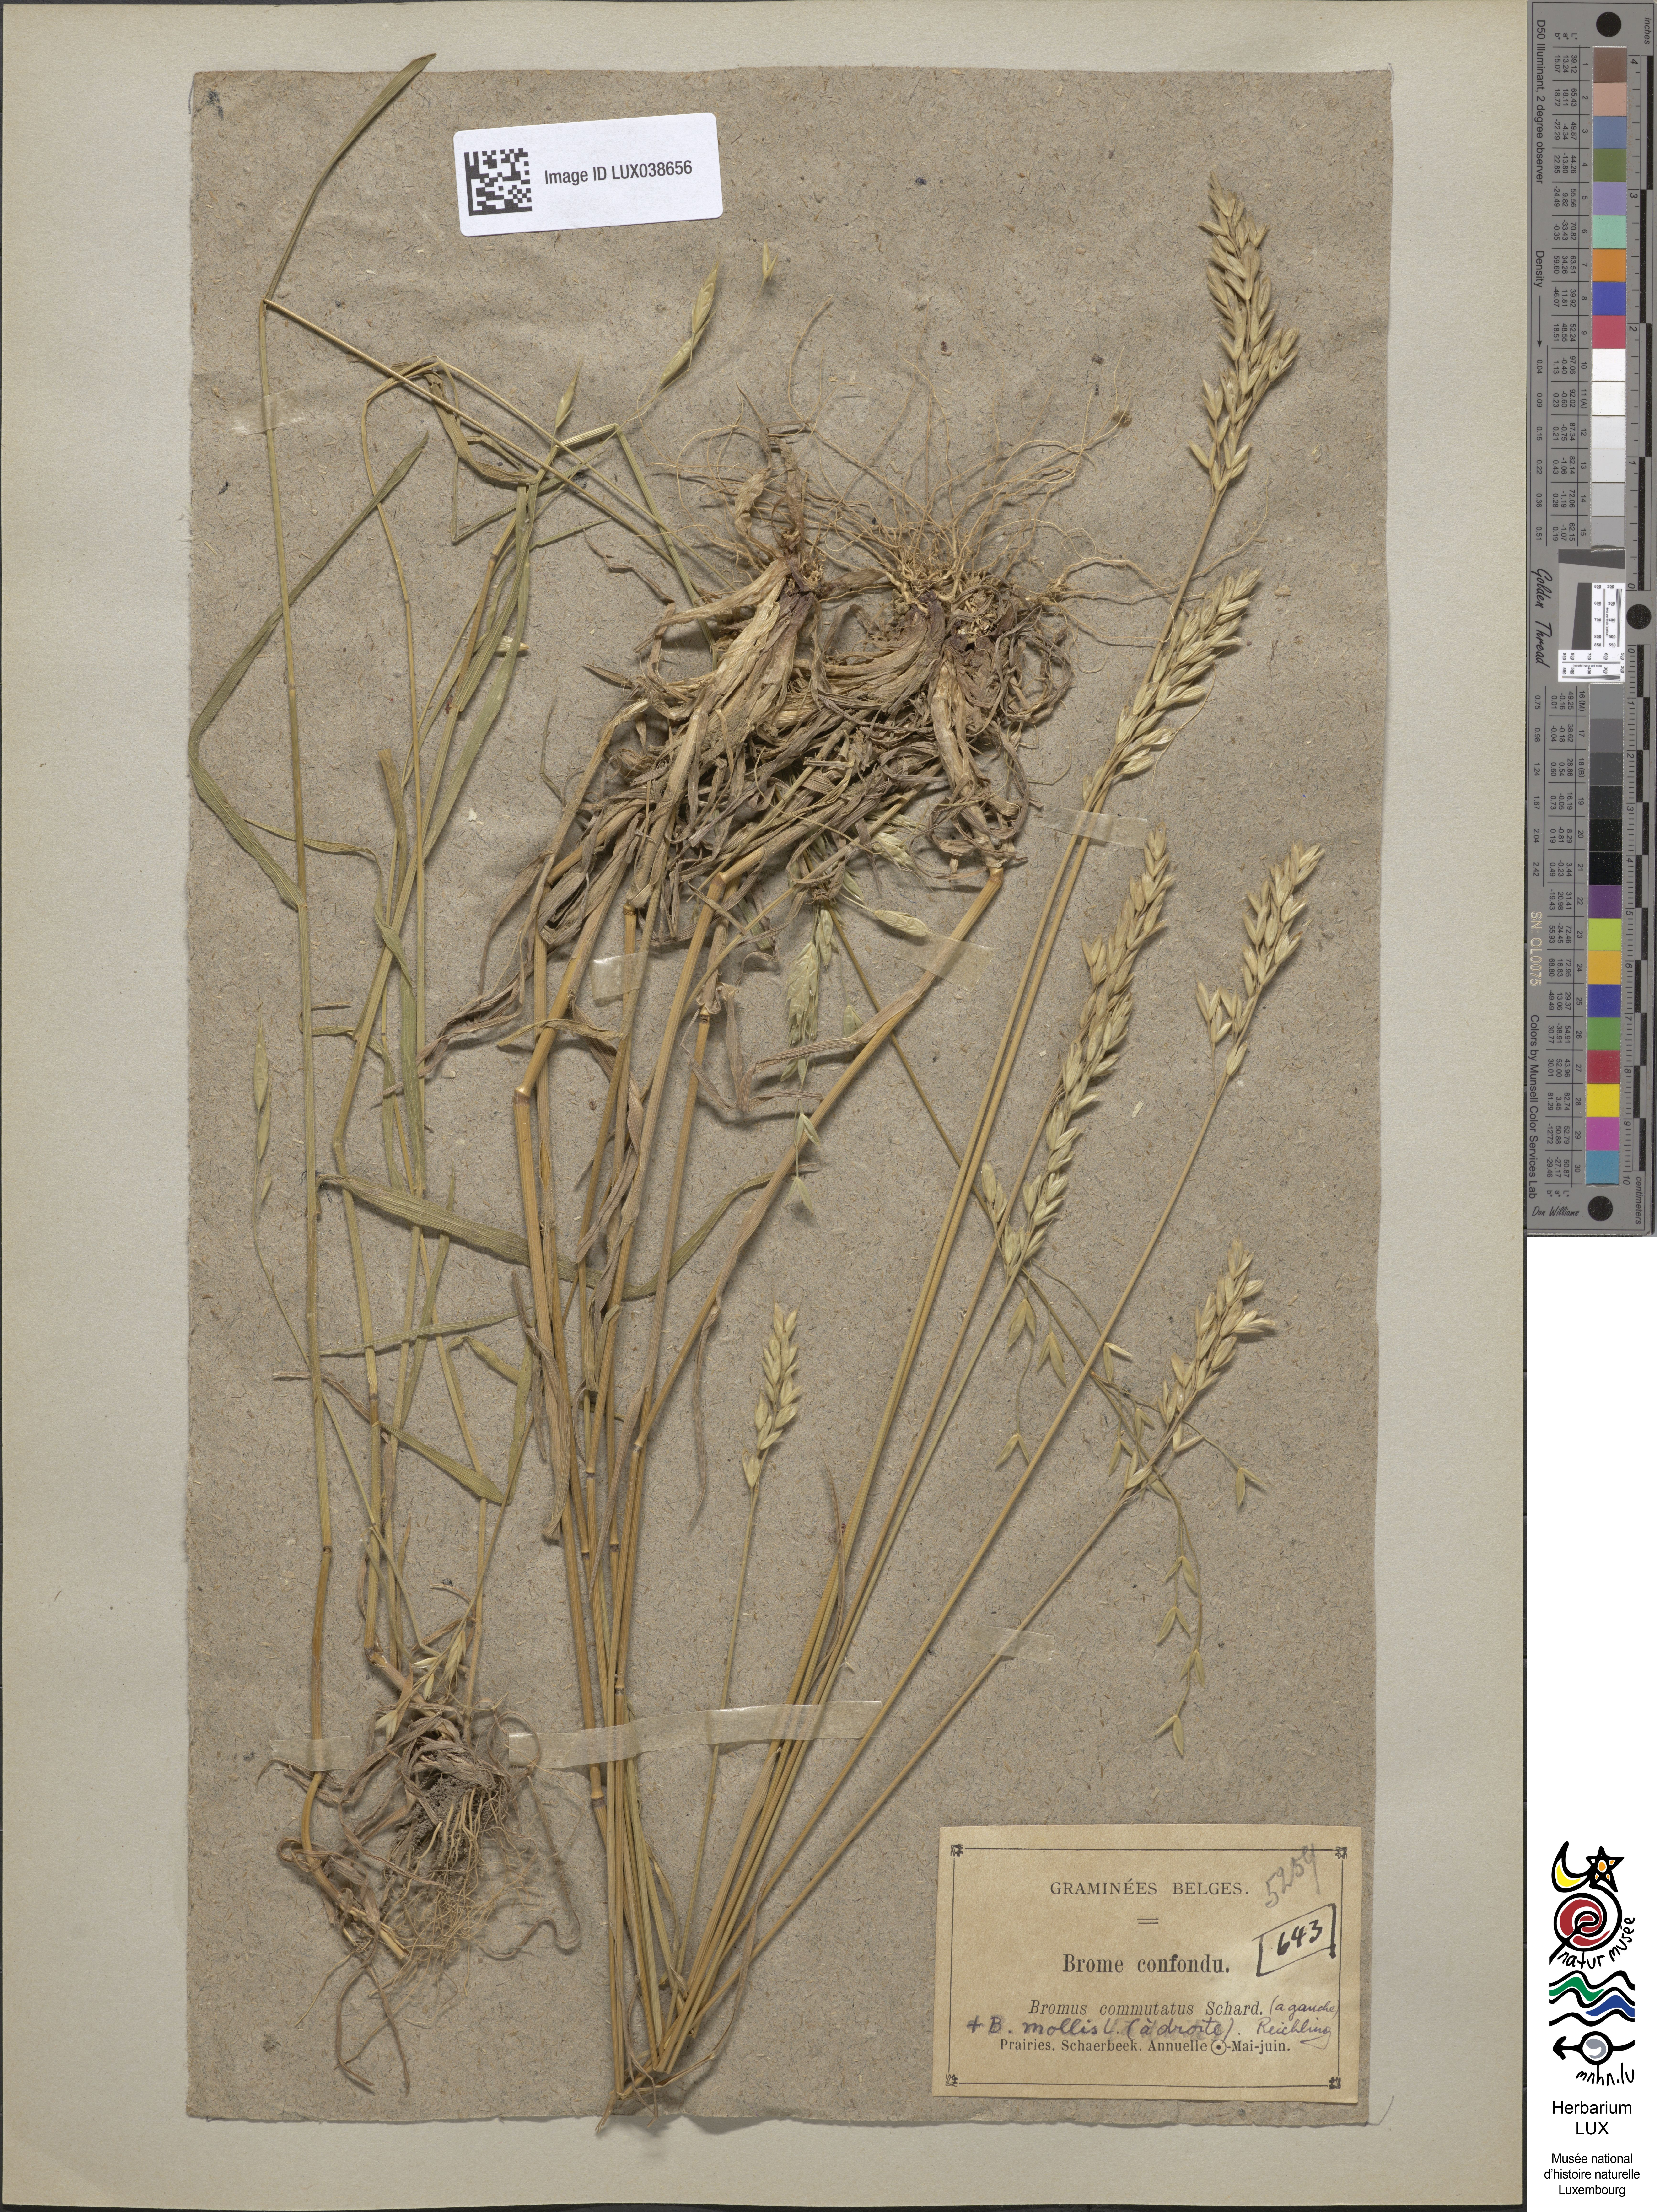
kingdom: Plantae
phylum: Tracheophyta
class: Liliopsida
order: Poales
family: Poaceae
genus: Bromus
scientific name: Bromus commutatus
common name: Meadow brome
